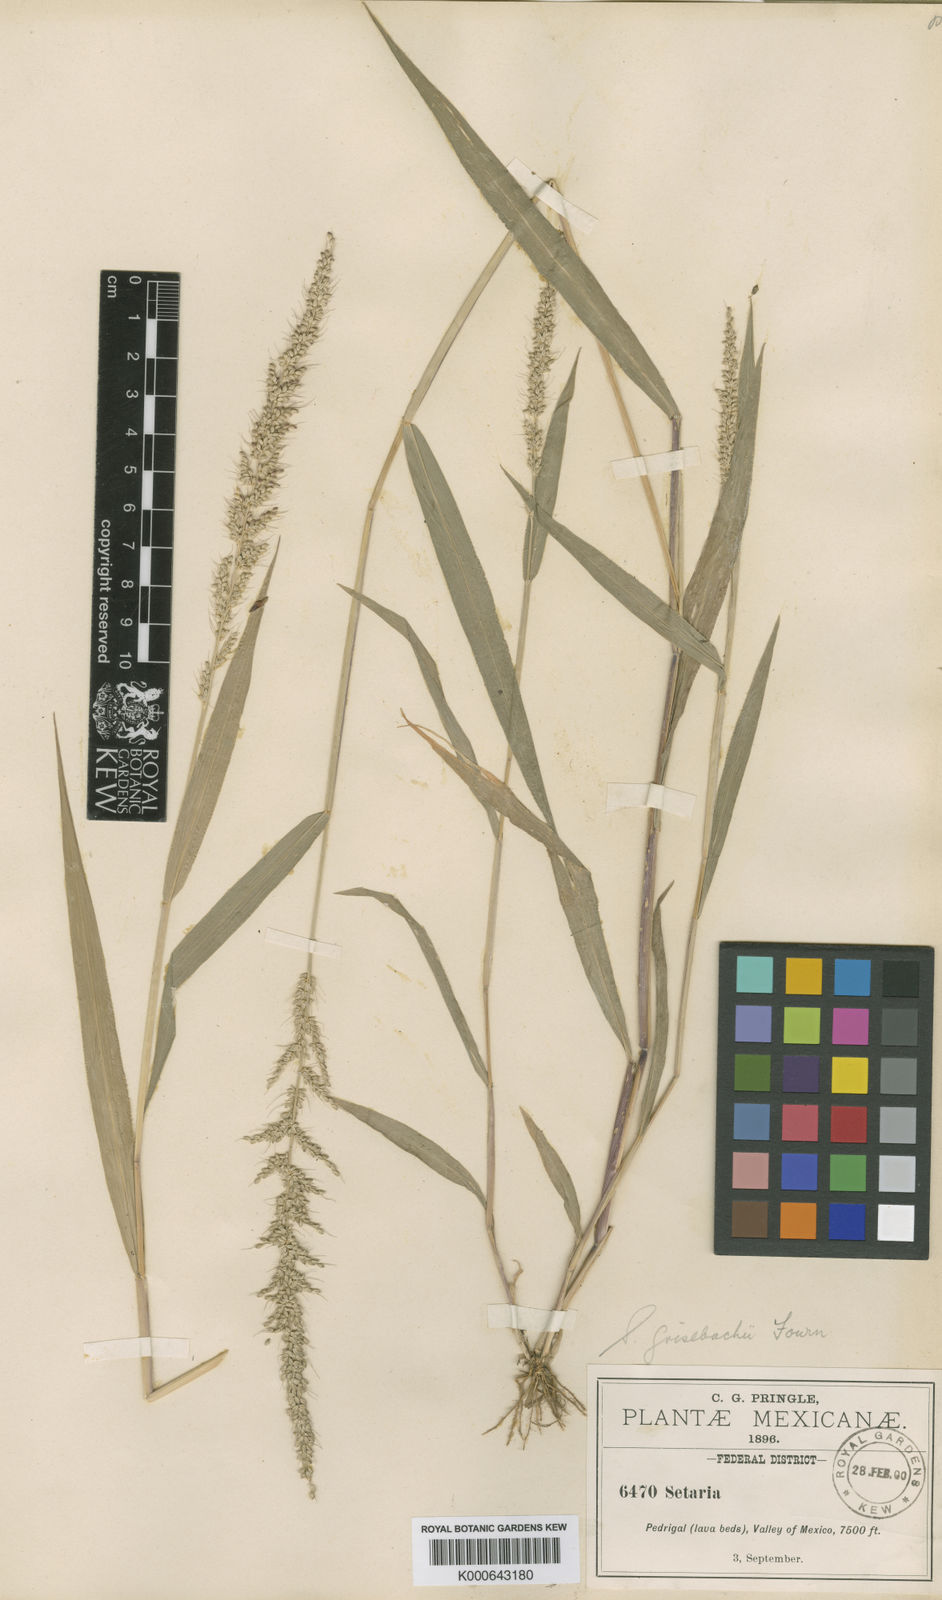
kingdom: Plantae
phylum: Tracheophyta
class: Liliopsida
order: Poales
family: Poaceae
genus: Setaria
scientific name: Setaria grisebachii
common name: Grisebach's bristle grass
